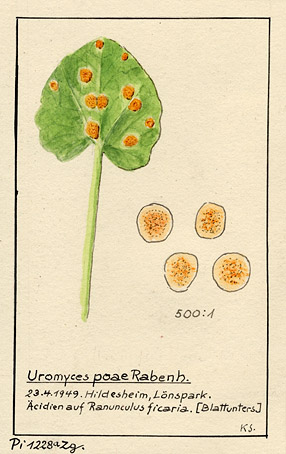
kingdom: Plantae
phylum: Tracheophyta
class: Magnoliopsida
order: Ranunculales
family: Ranunculaceae
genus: Ranunculus
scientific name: Ranunculus ficaria
